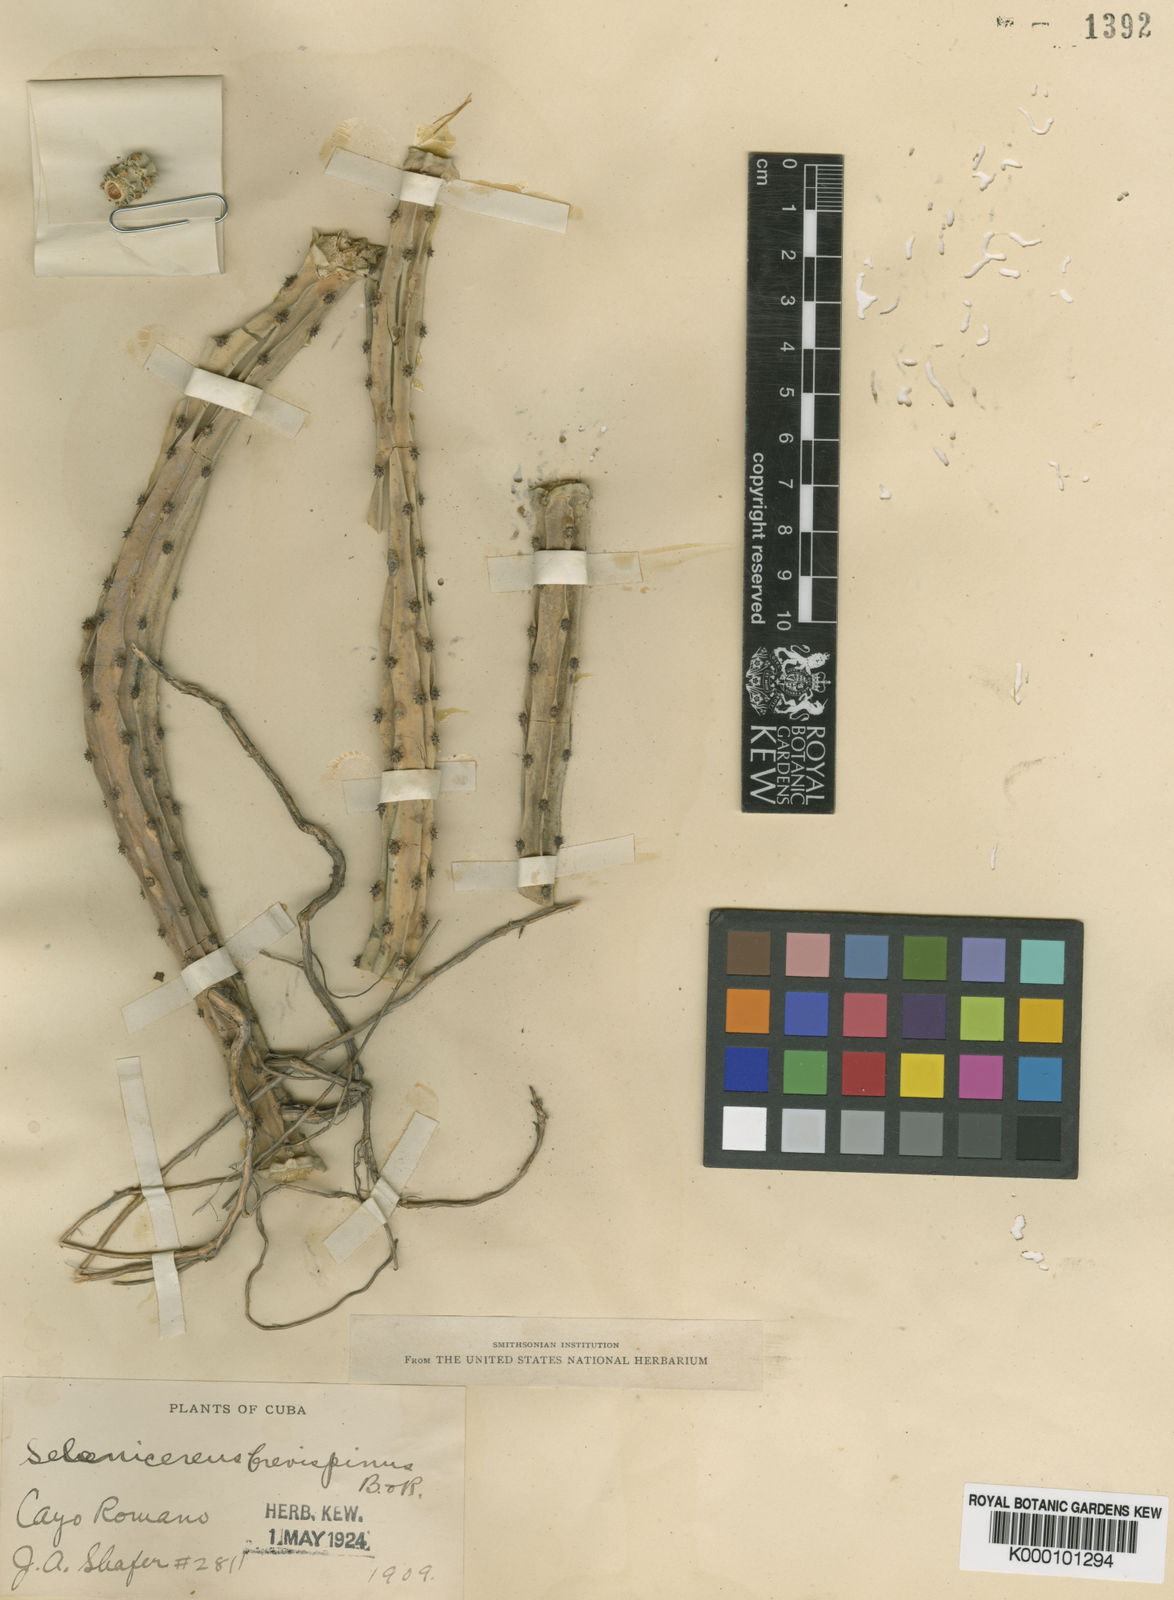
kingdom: Plantae
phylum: Tracheophyta
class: Magnoliopsida
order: Caryophyllales
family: Cactaceae
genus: Selenicereus
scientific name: Selenicereus pteranthus
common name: Princess of the night
